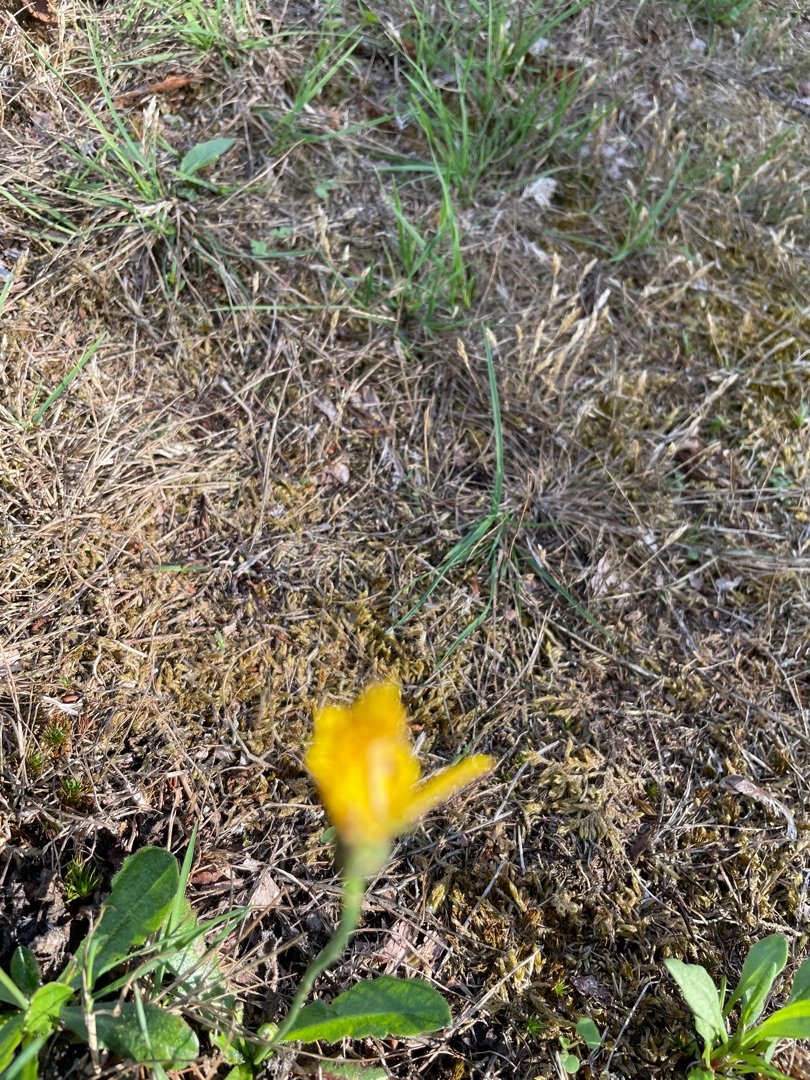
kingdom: Plantae
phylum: Tracheophyta
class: Magnoliopsida
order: Asterales
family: Asteraceae
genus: Hypochaeris
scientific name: Hypochaeris radicata
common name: Almindelig kongepen
